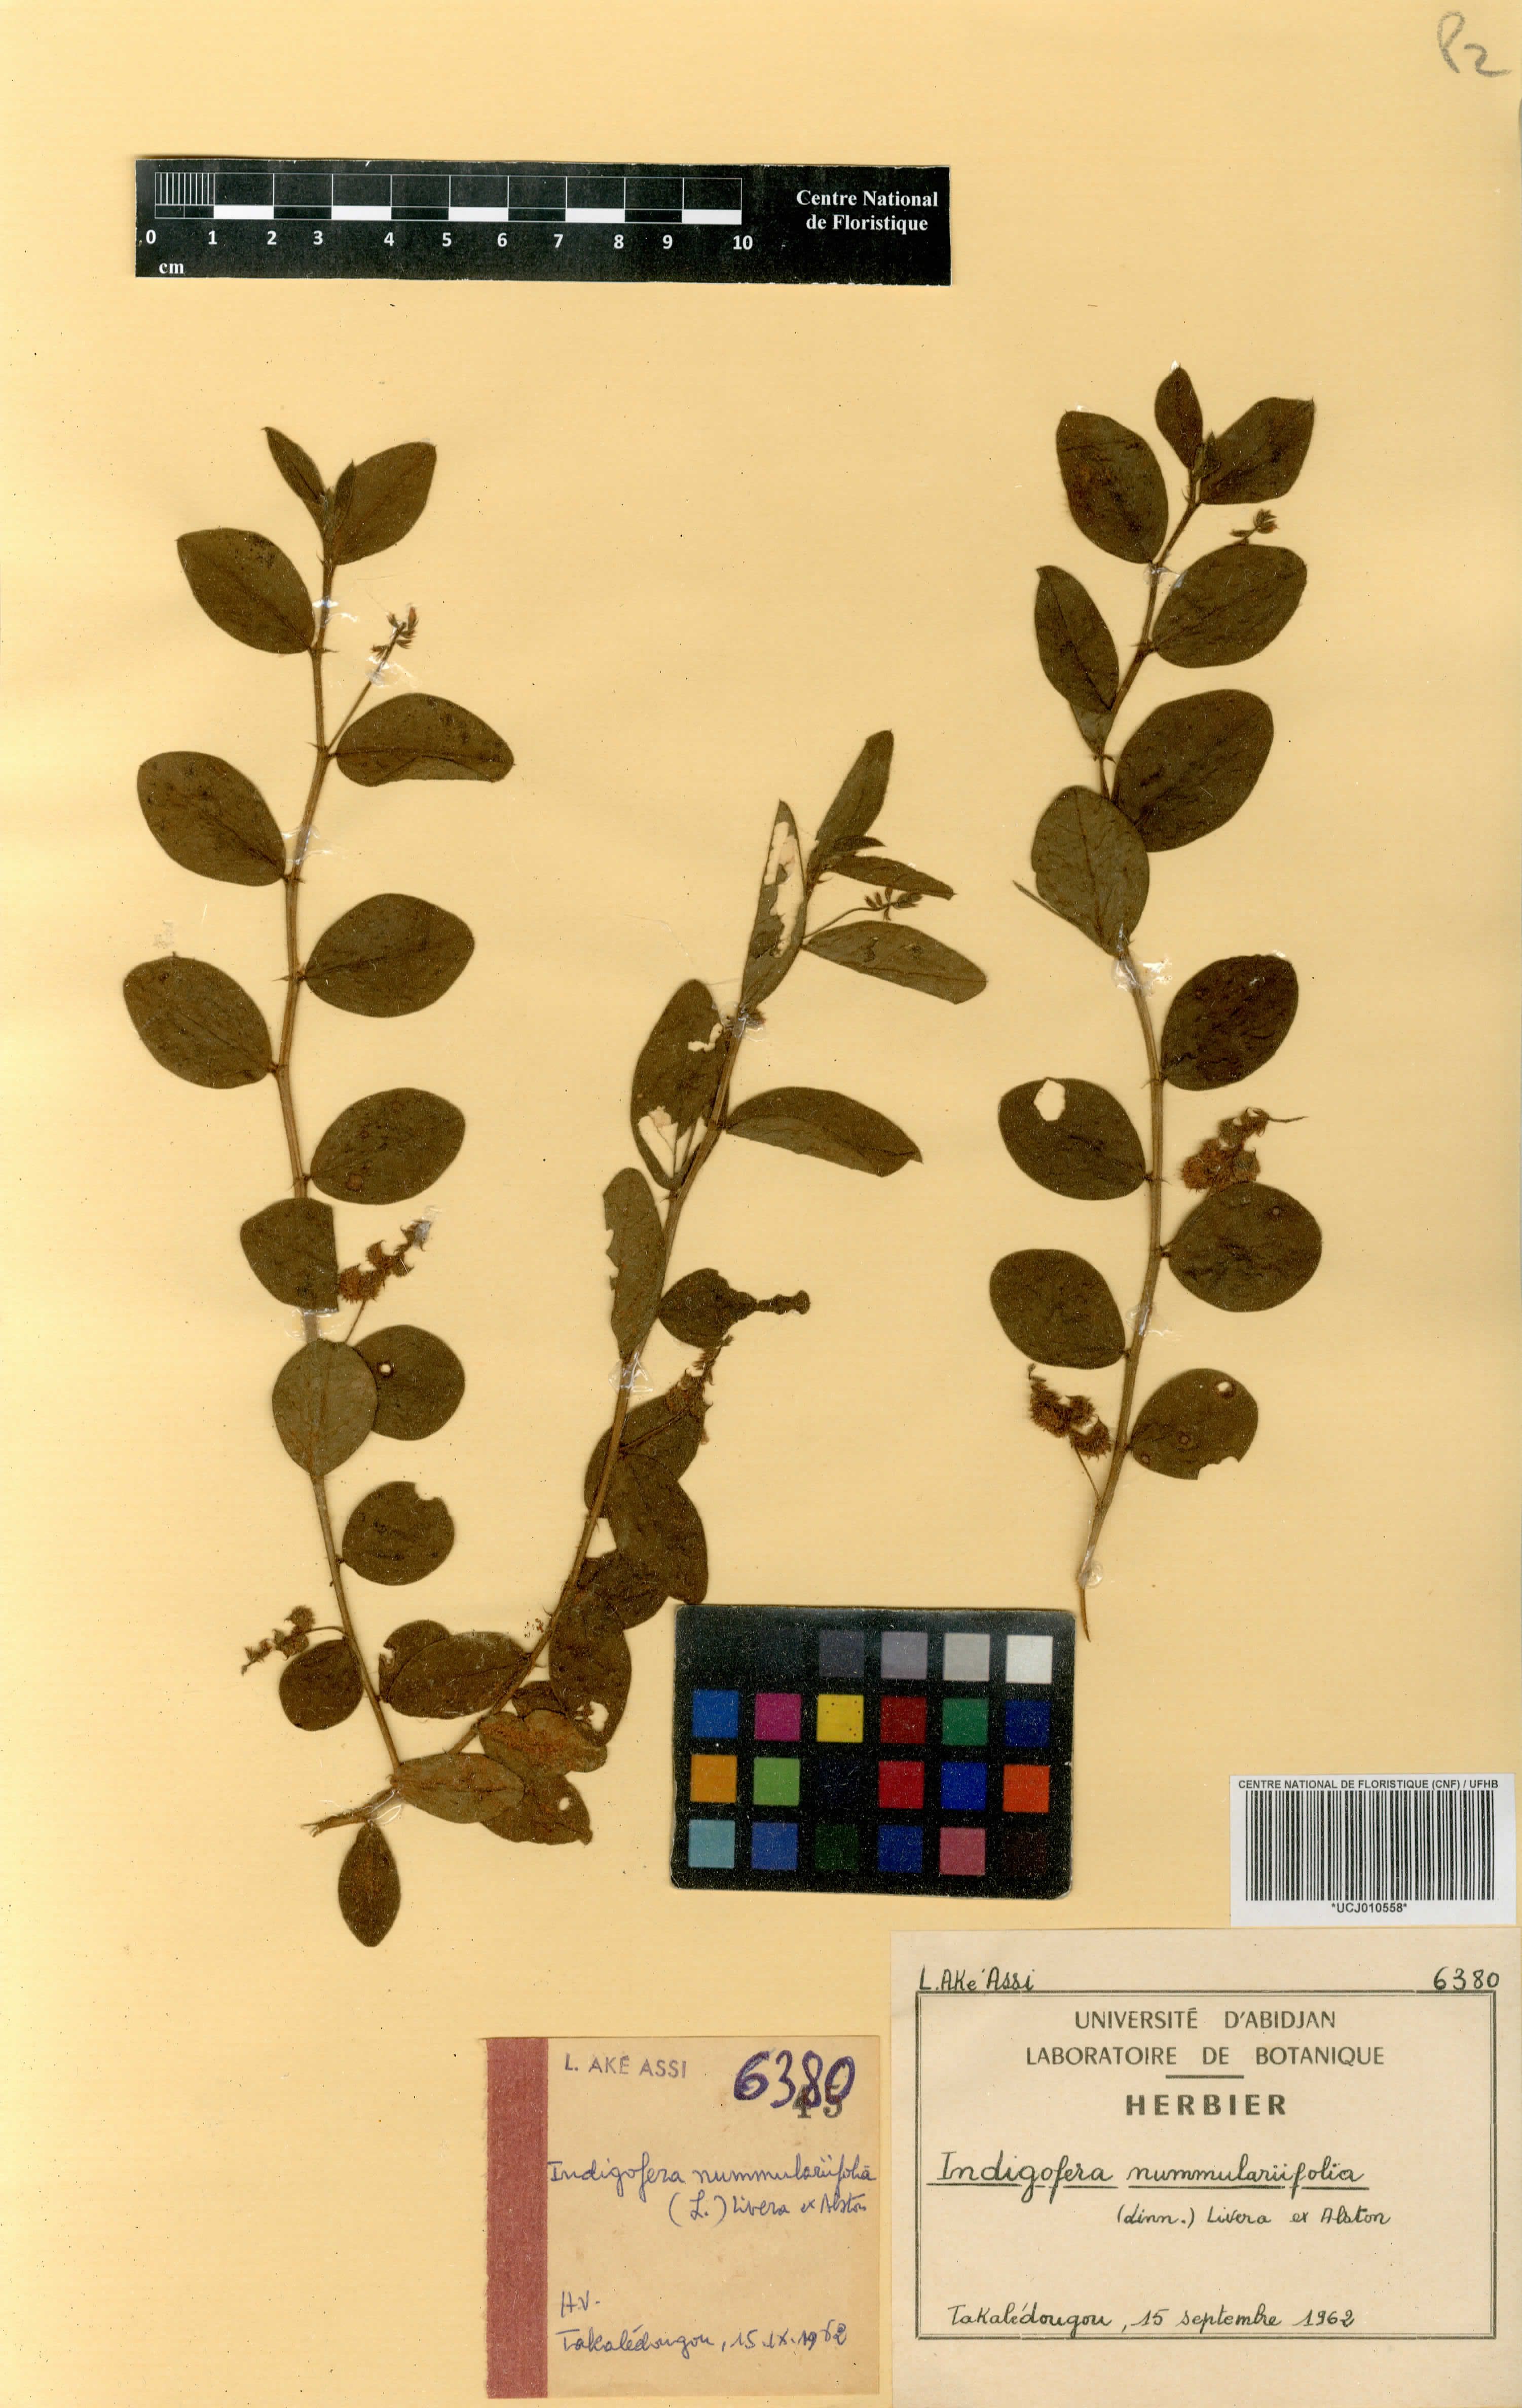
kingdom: Plantae
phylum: Tracheophyta
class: Magnoliopsida
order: Fabales
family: Fabaceae
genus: Indigofera
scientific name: Indigofera nummulariifolia
